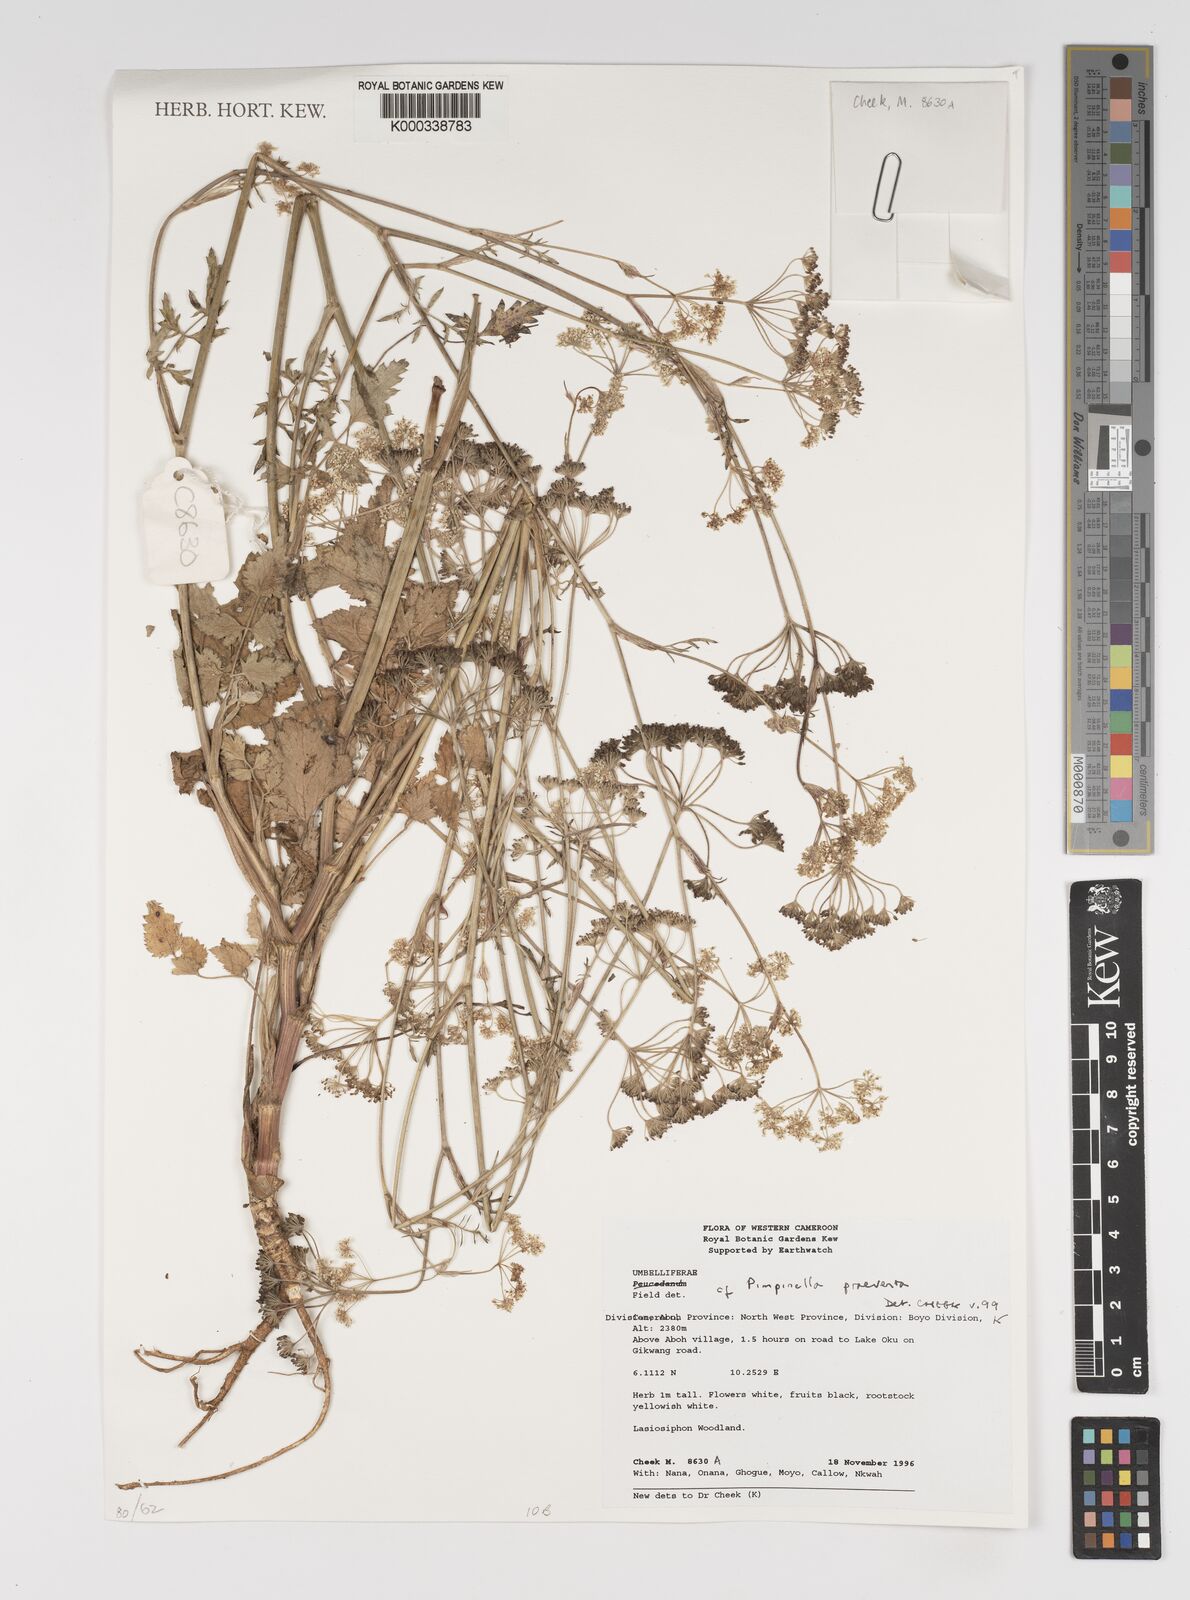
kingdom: Plantae
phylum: Tracheophyta
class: Magnoliopsida
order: Apiales
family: Apiaceae
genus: Pimpinella
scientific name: Pimpinella hirtella
